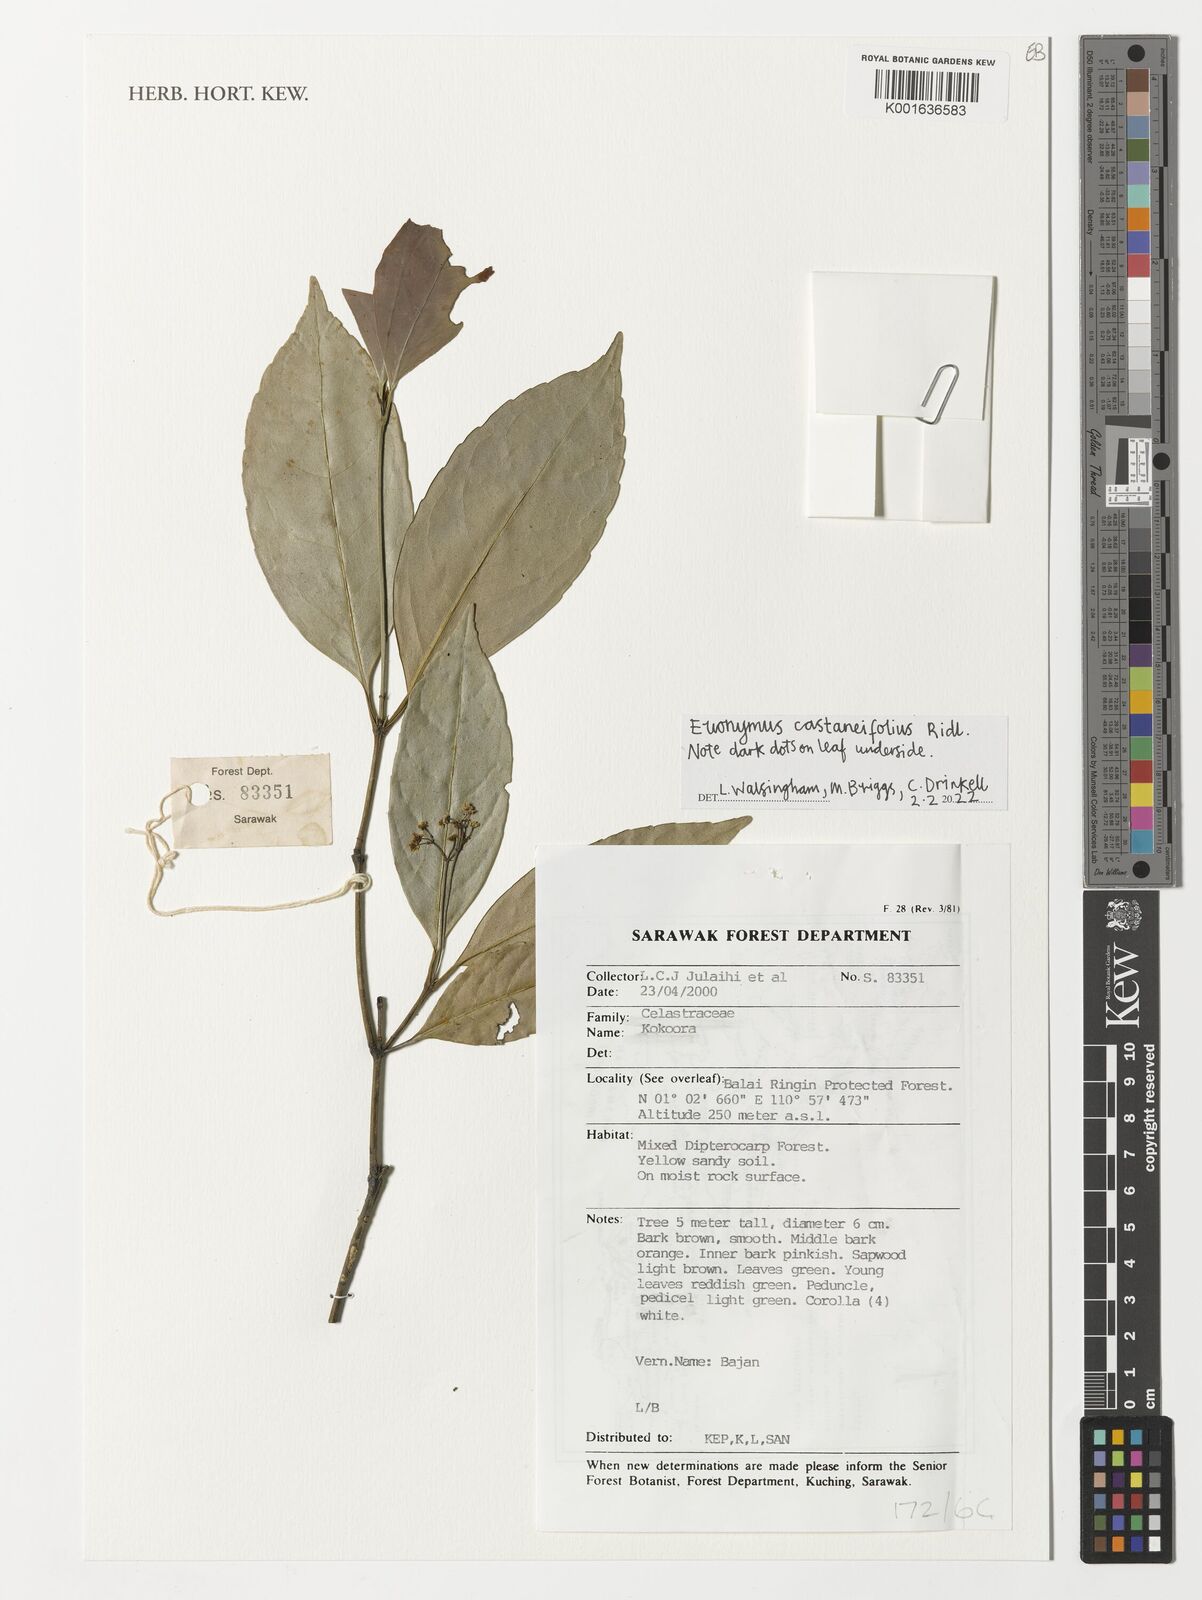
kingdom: Plantae
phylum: Tracheophyta
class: Magnoliopsida
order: Celastrales
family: Celastraceae
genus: Euonymus
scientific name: Euonymus castaneifolius
